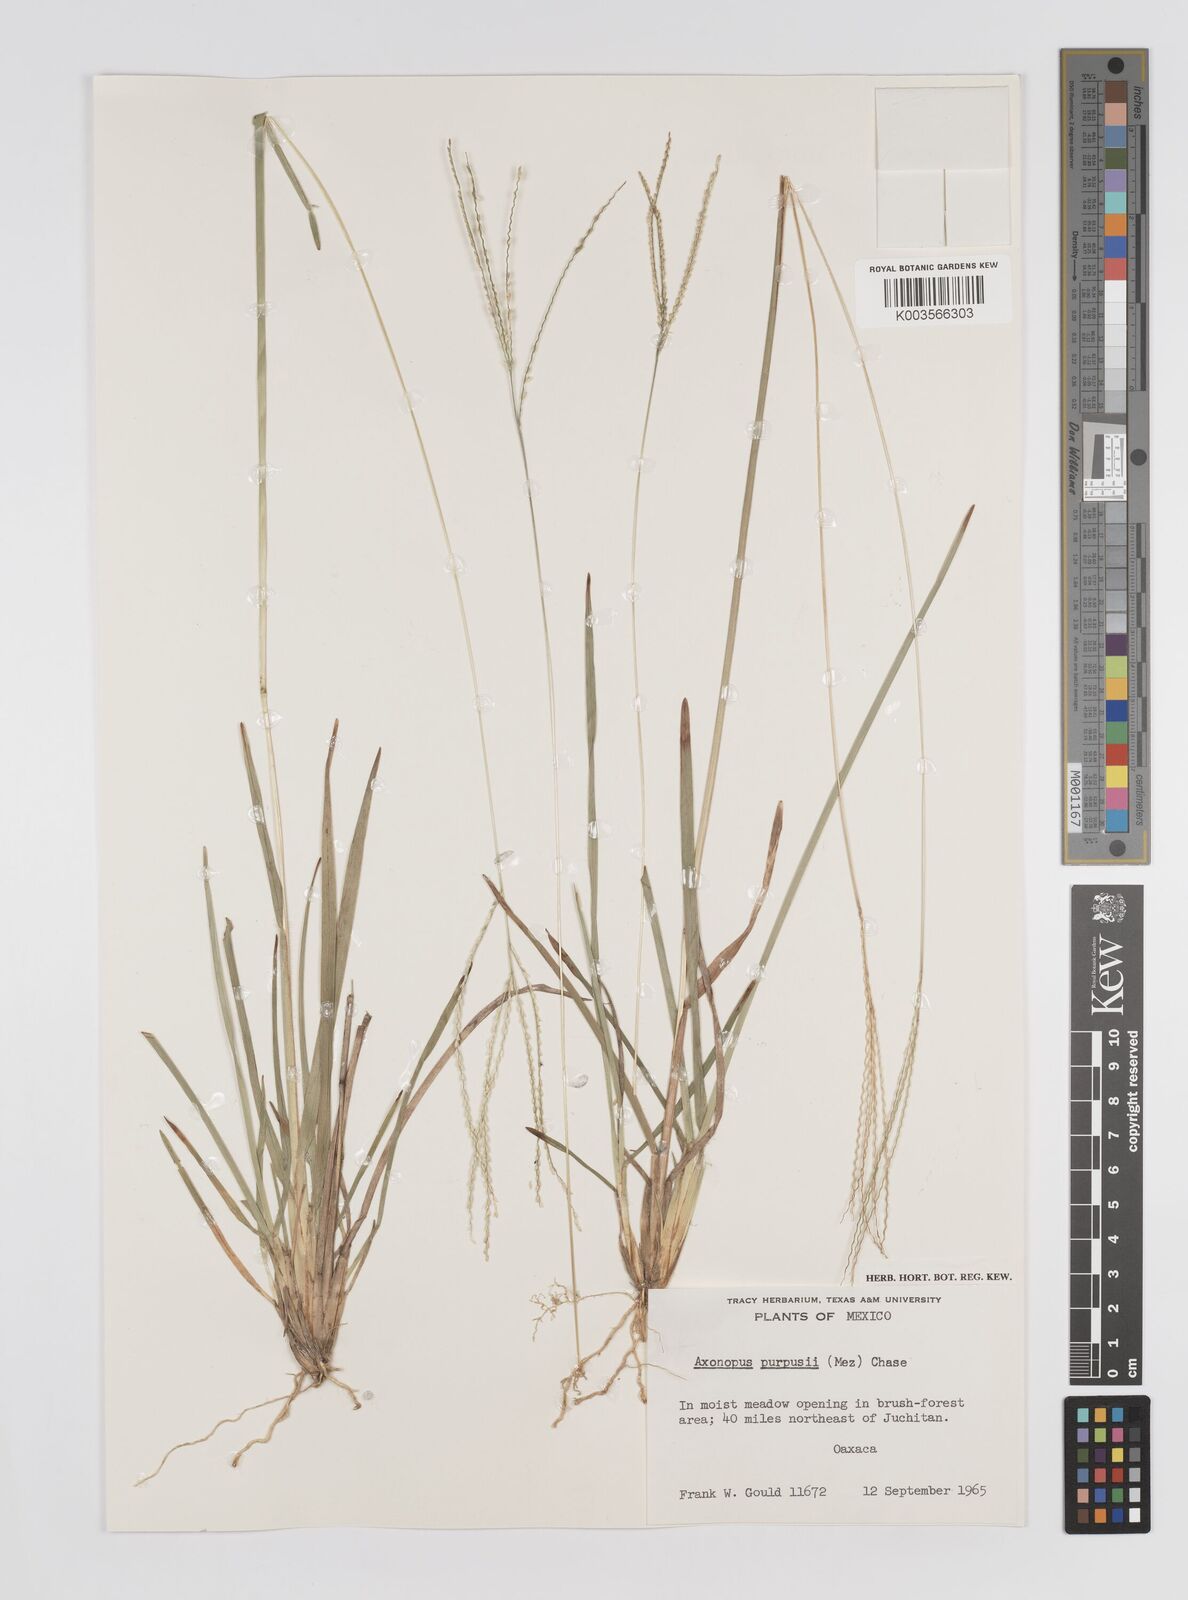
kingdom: Plantae
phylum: Tracheophyta
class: Liliopsida
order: Poales
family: Poaceae
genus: Axonopus
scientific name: Axonopus purpusii
